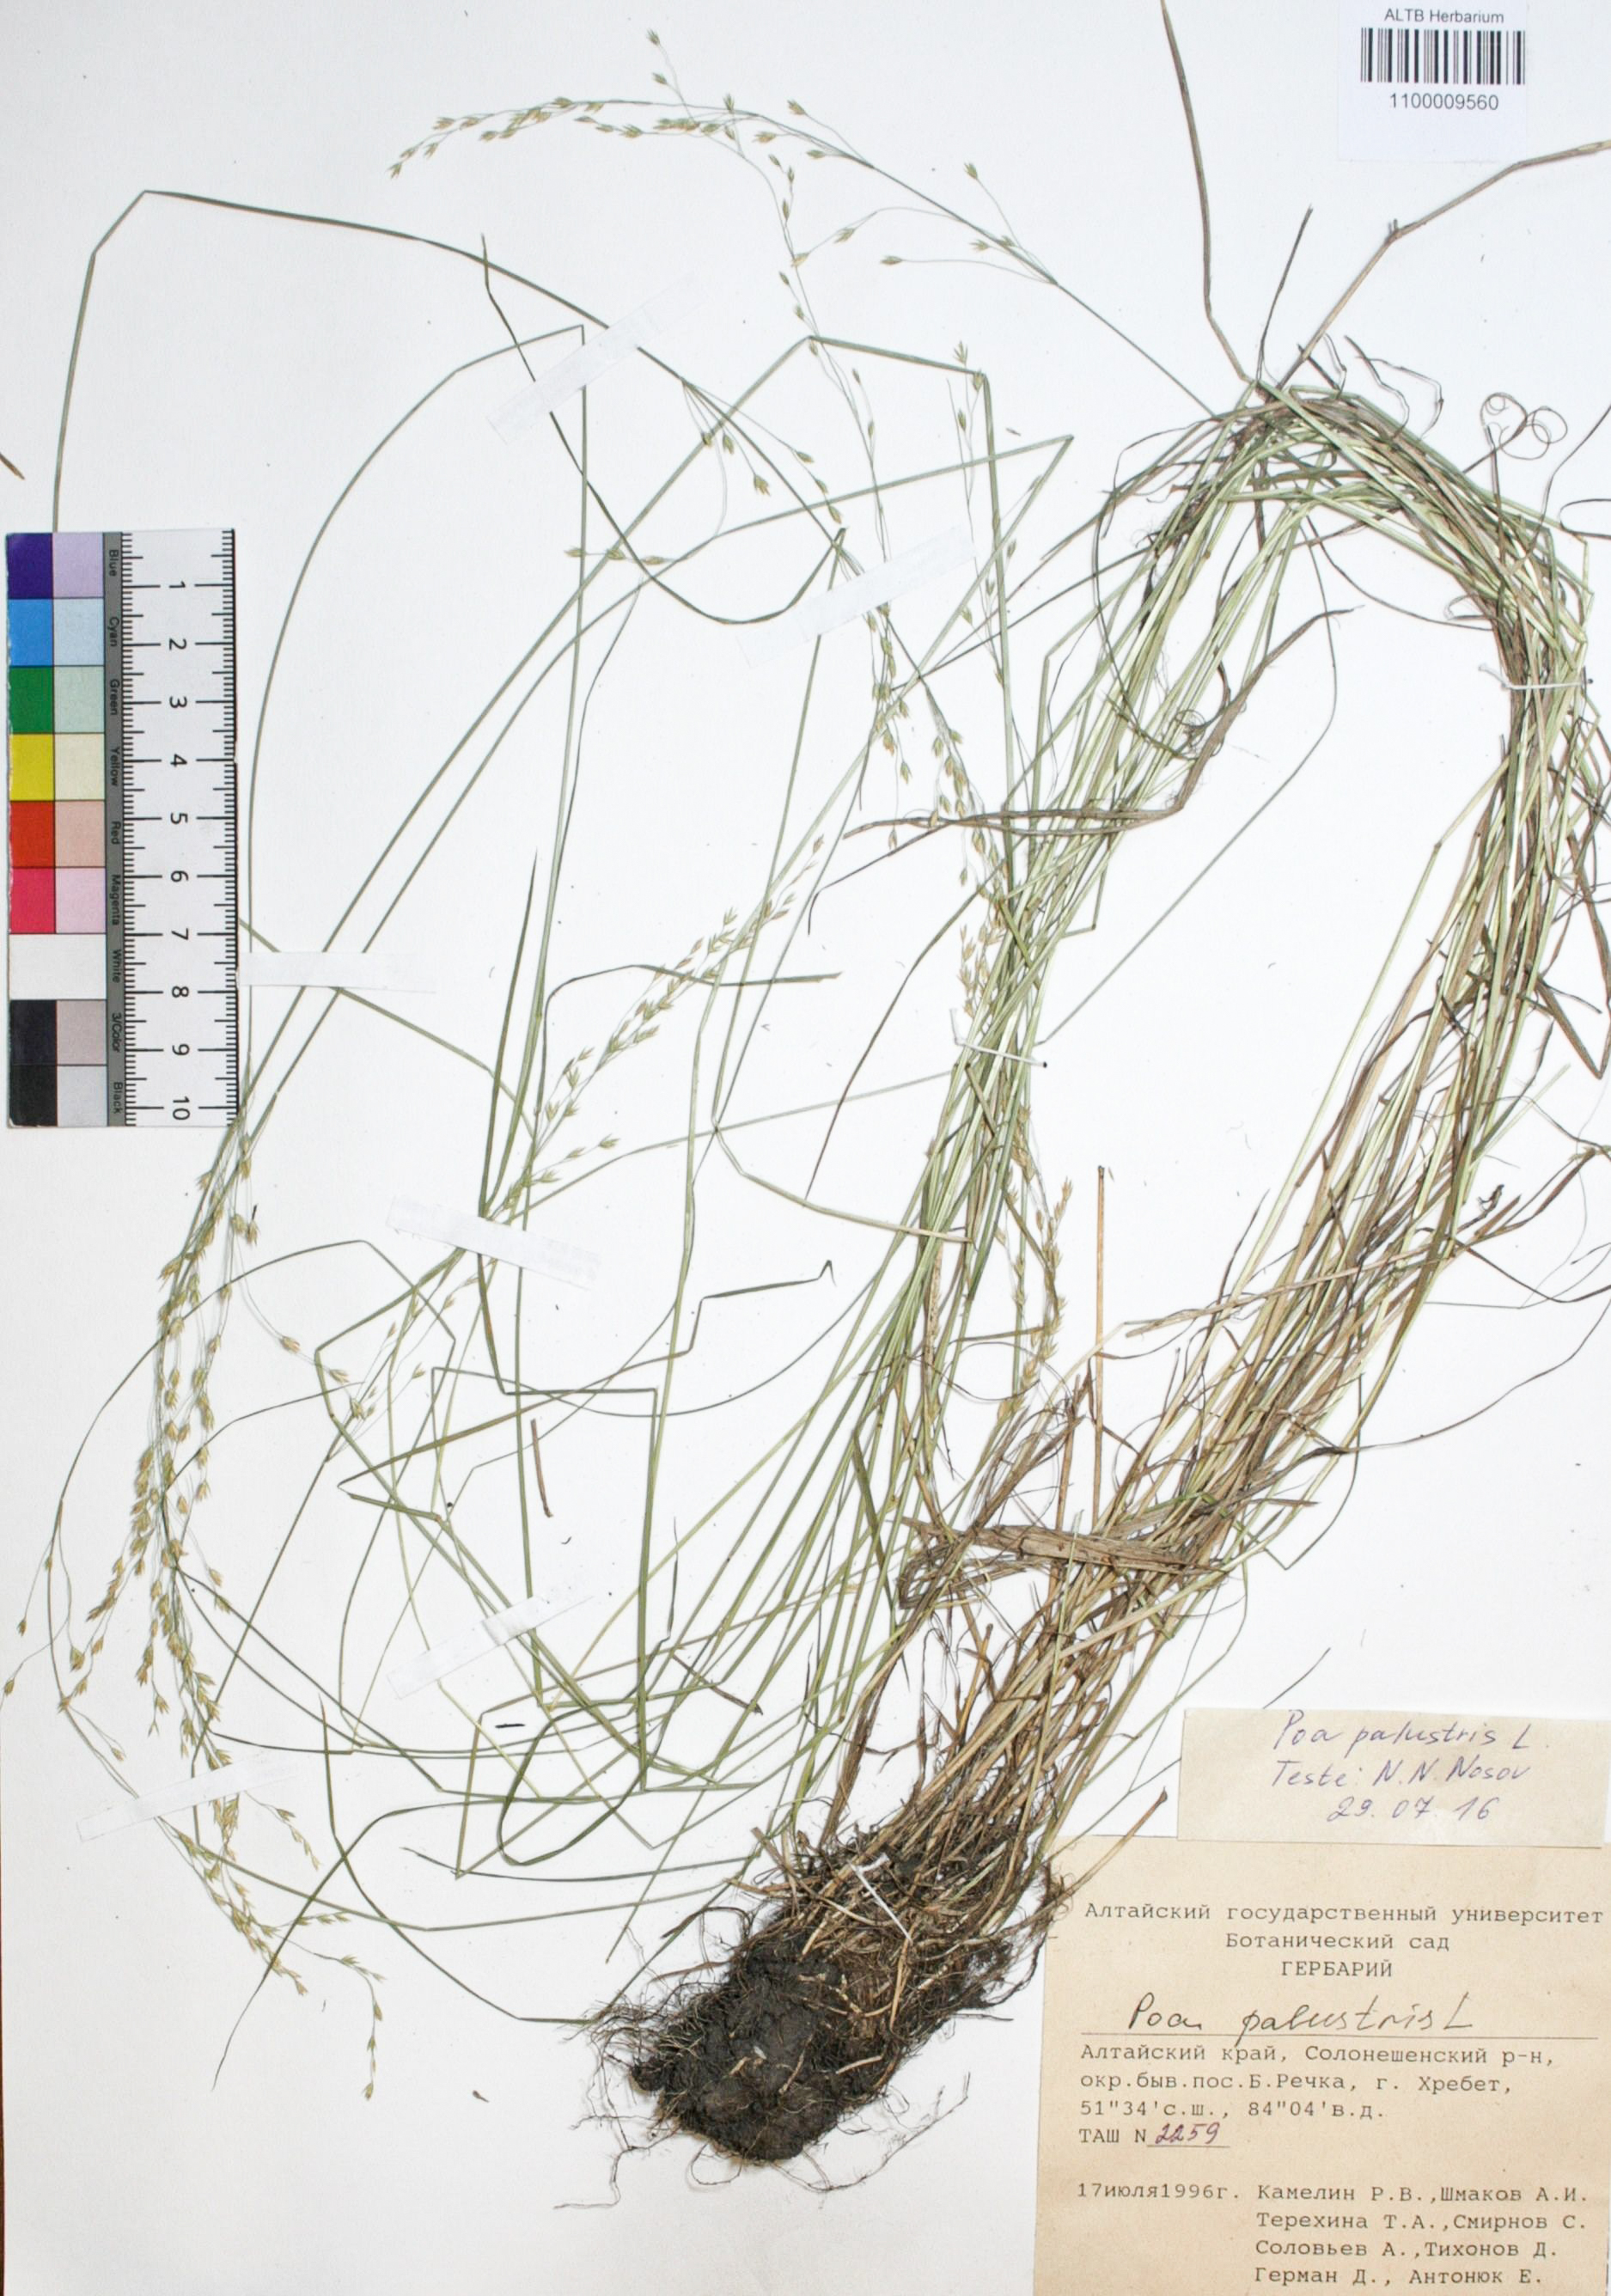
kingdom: Plantae
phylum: Tracheophyta
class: Liliopsida
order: Poales
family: Poaceae
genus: Poa
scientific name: Poa palustris
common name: Swamp meadow-grass
